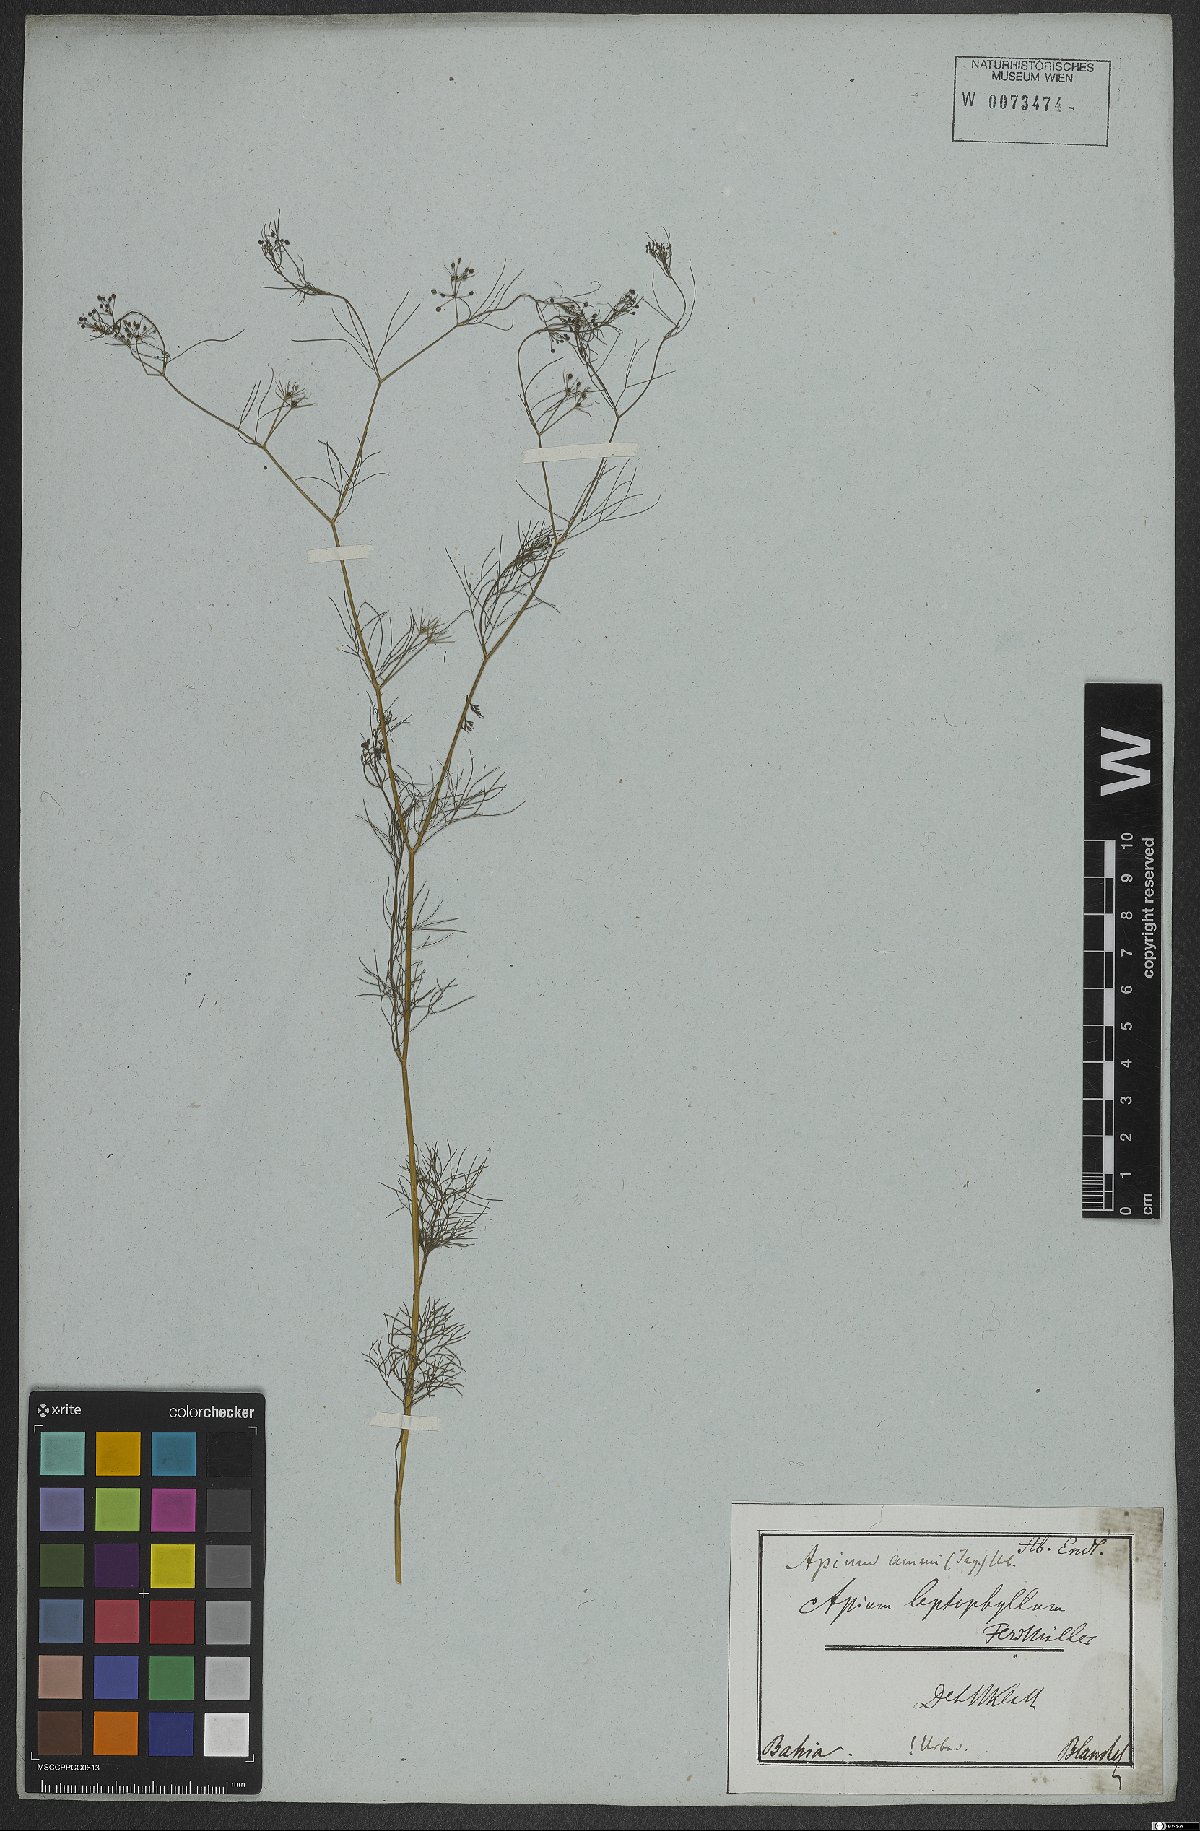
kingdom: Plantae
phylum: Tracheophyta
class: Magnoliopsida
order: Apiales
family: Apiaceae
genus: Cyclospermum
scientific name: Cyclospermum leptophyllum
